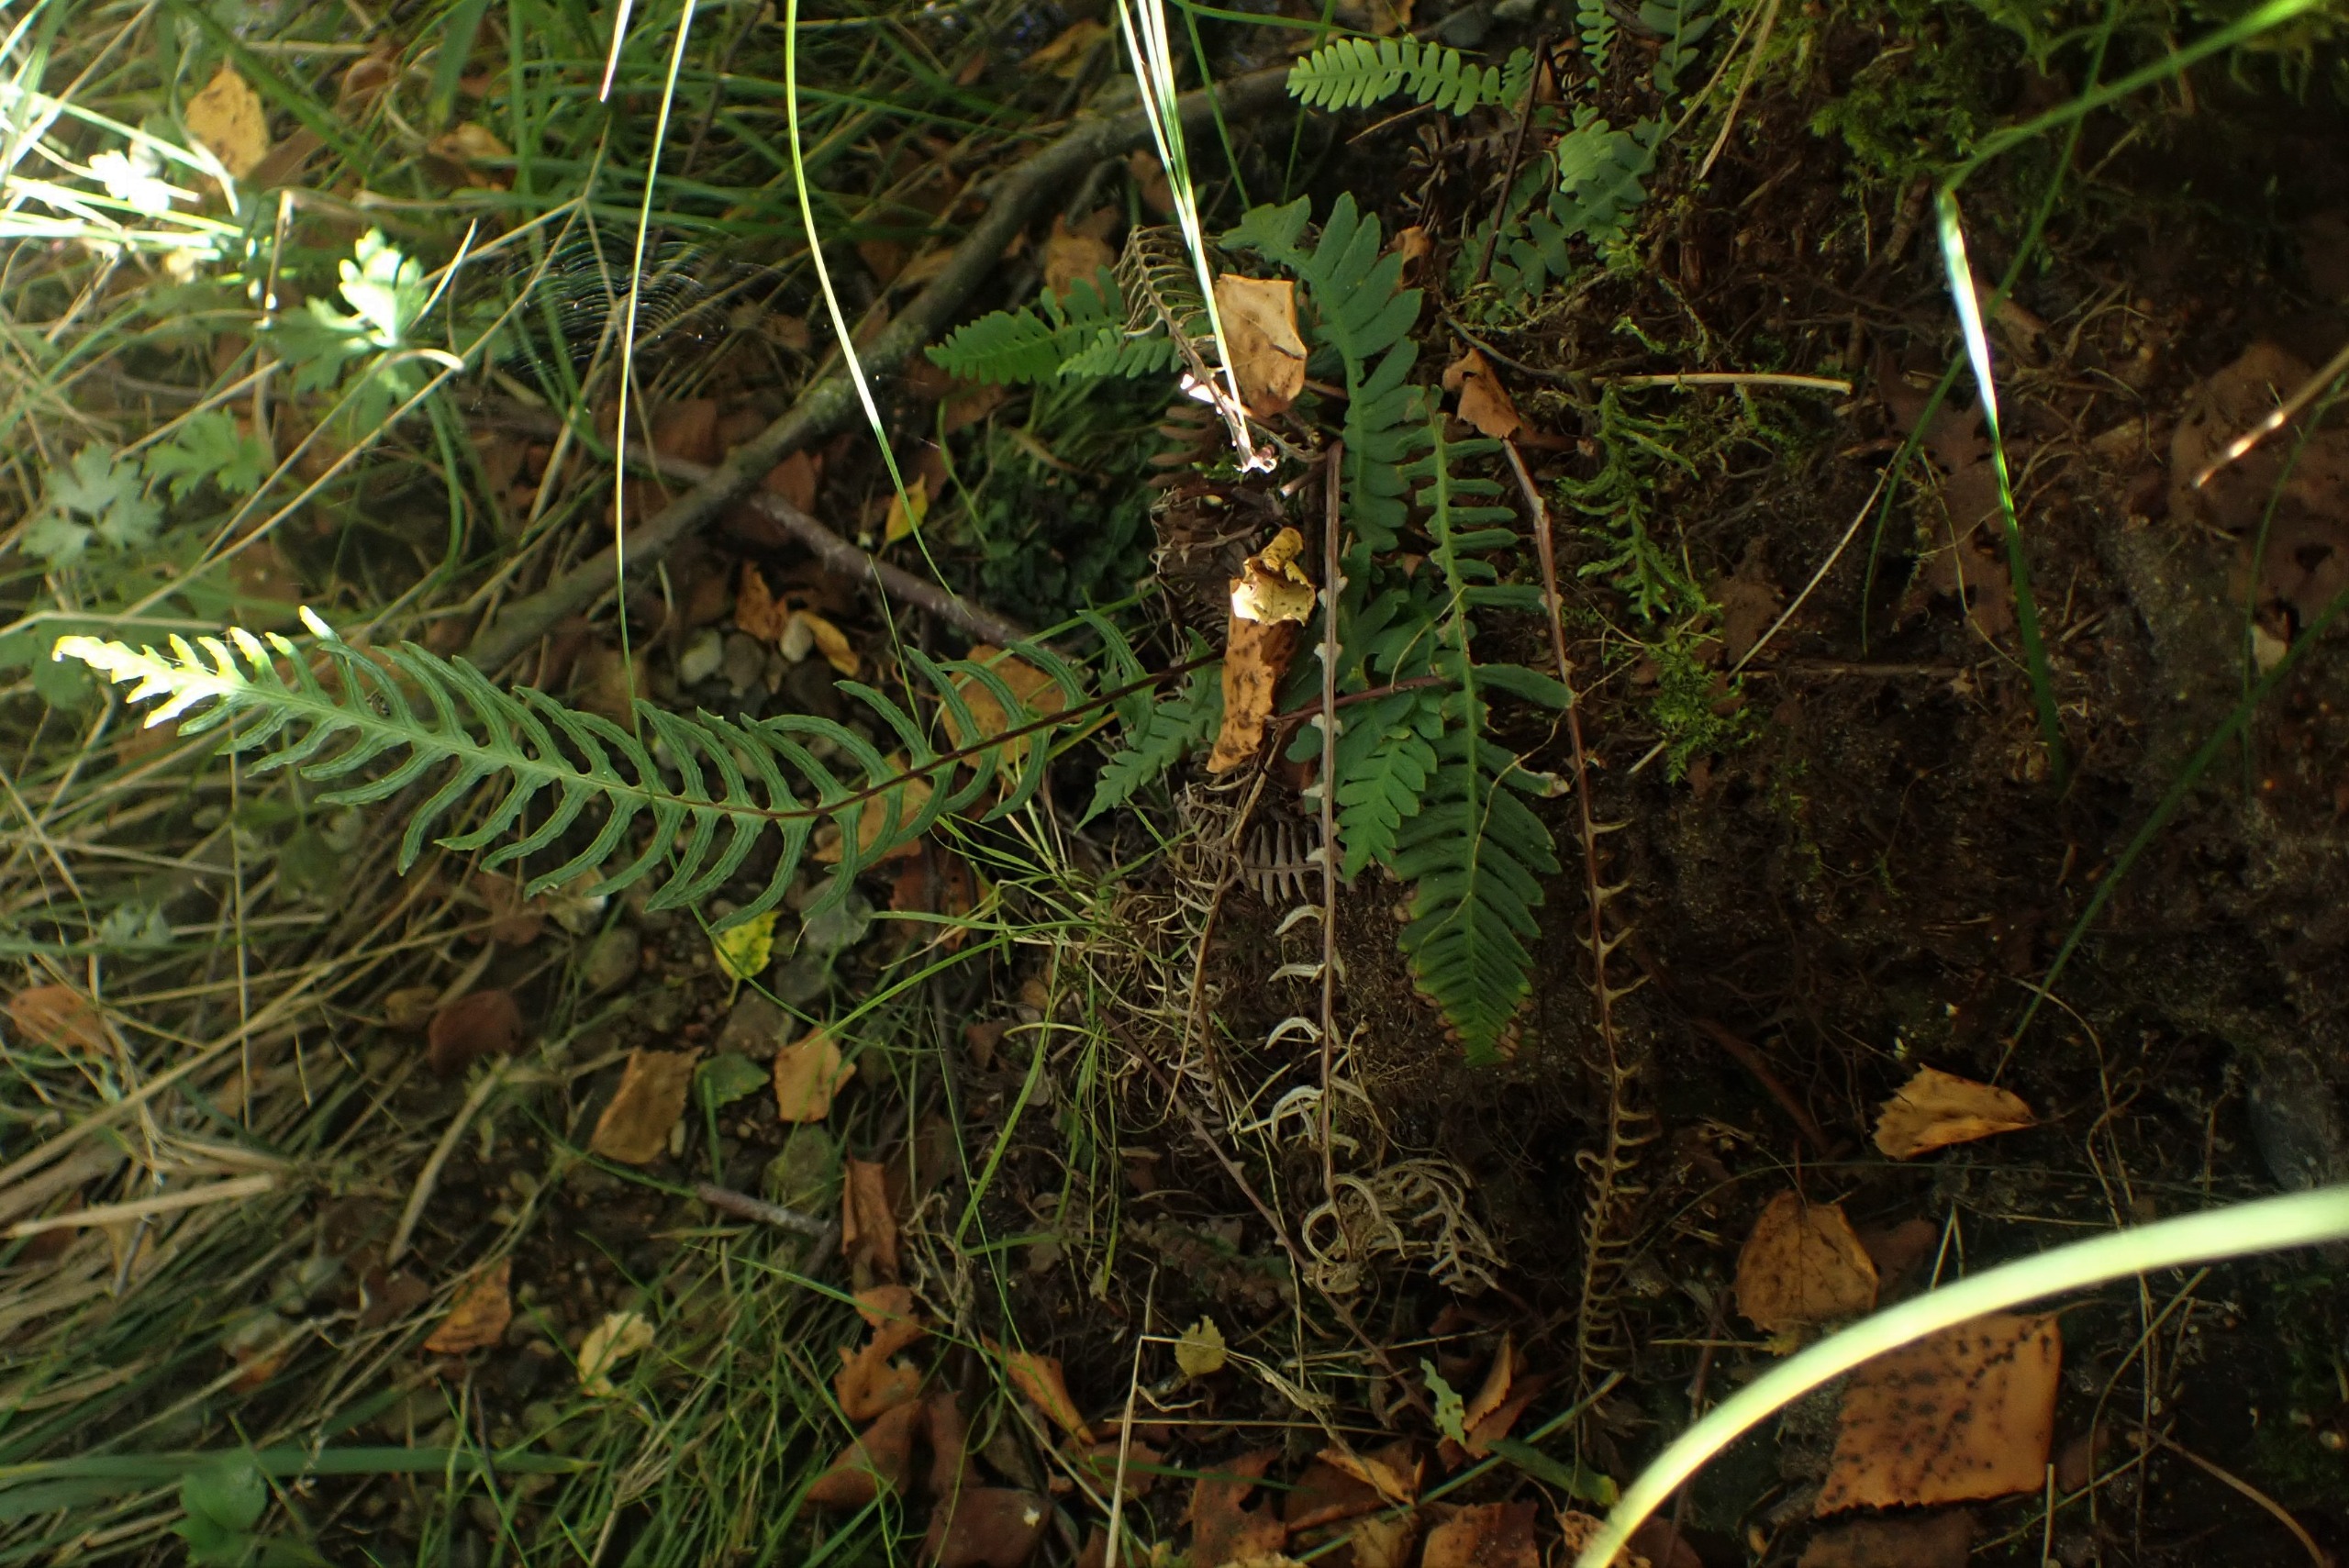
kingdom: Plantae
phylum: Tracheophyta
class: Polypodiopsida
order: Polypodiales
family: Blechnaceae
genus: Struthiopteris
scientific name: Struthiopteris spicant
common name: Kambregne
